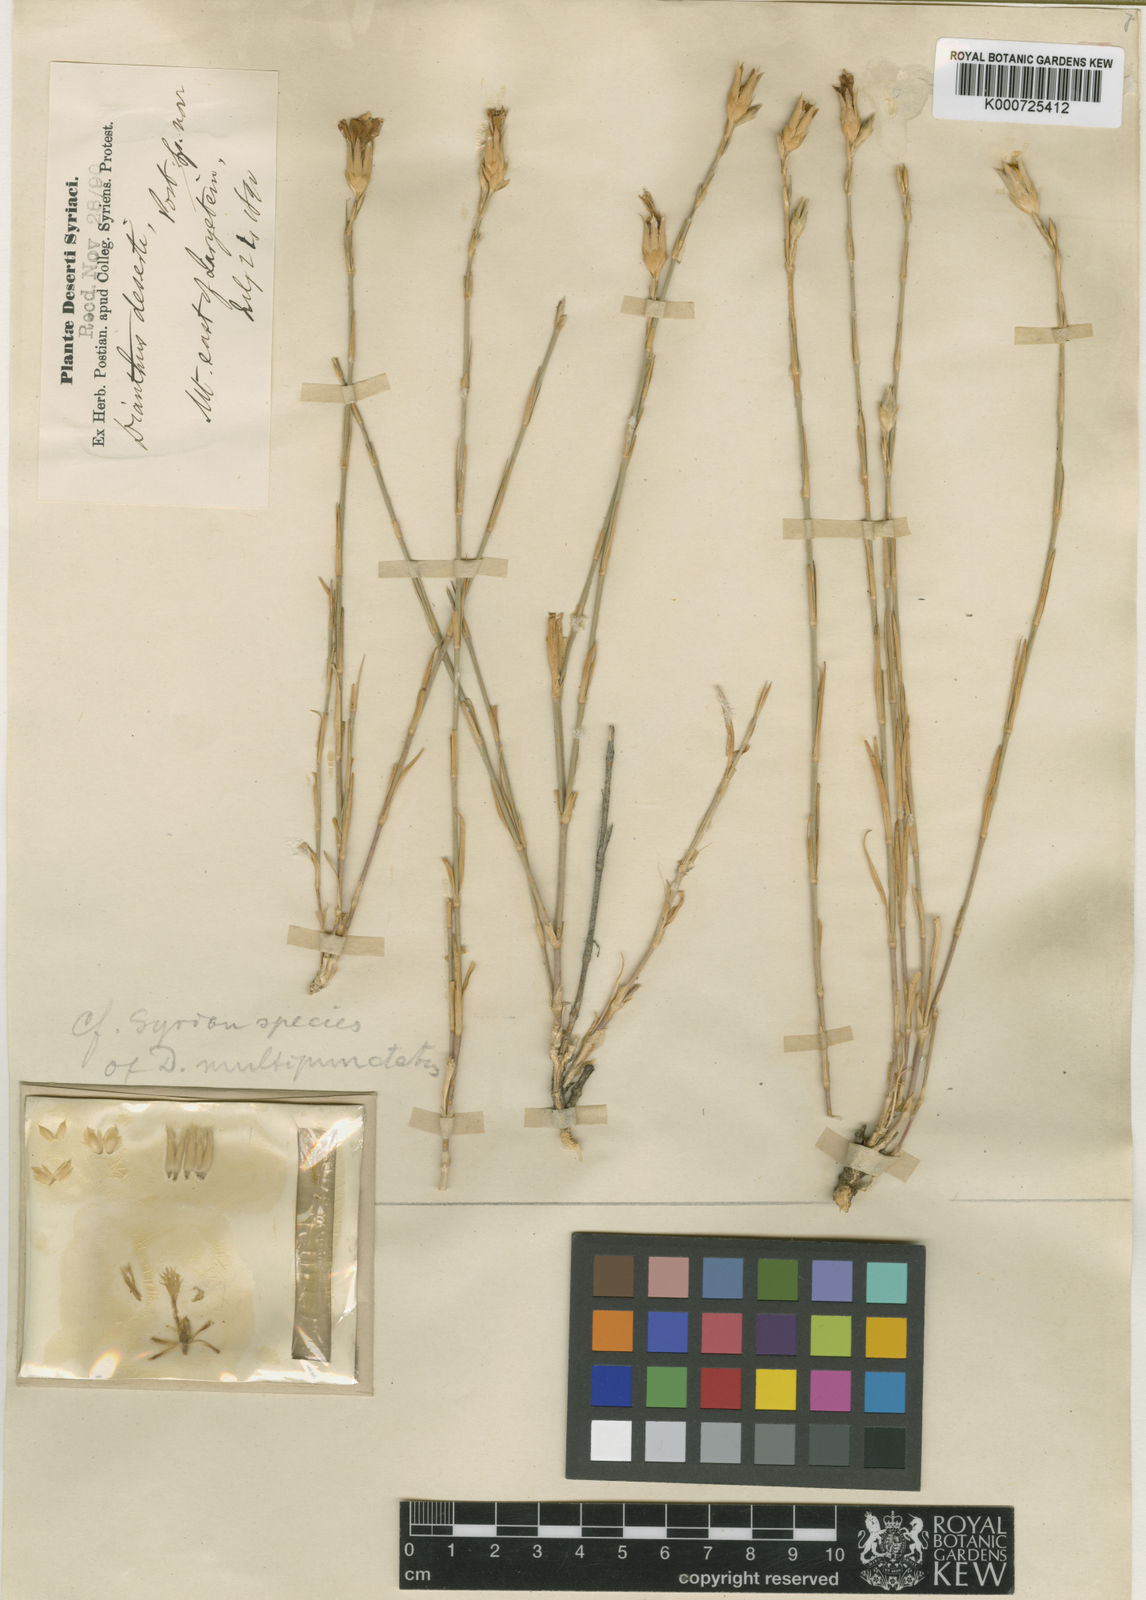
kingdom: Plantae
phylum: Tracheophyta
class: Magnoliopsida
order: Caryophyllales
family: Caryophyllaceae
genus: Dianthus
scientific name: Dianthus strictus
